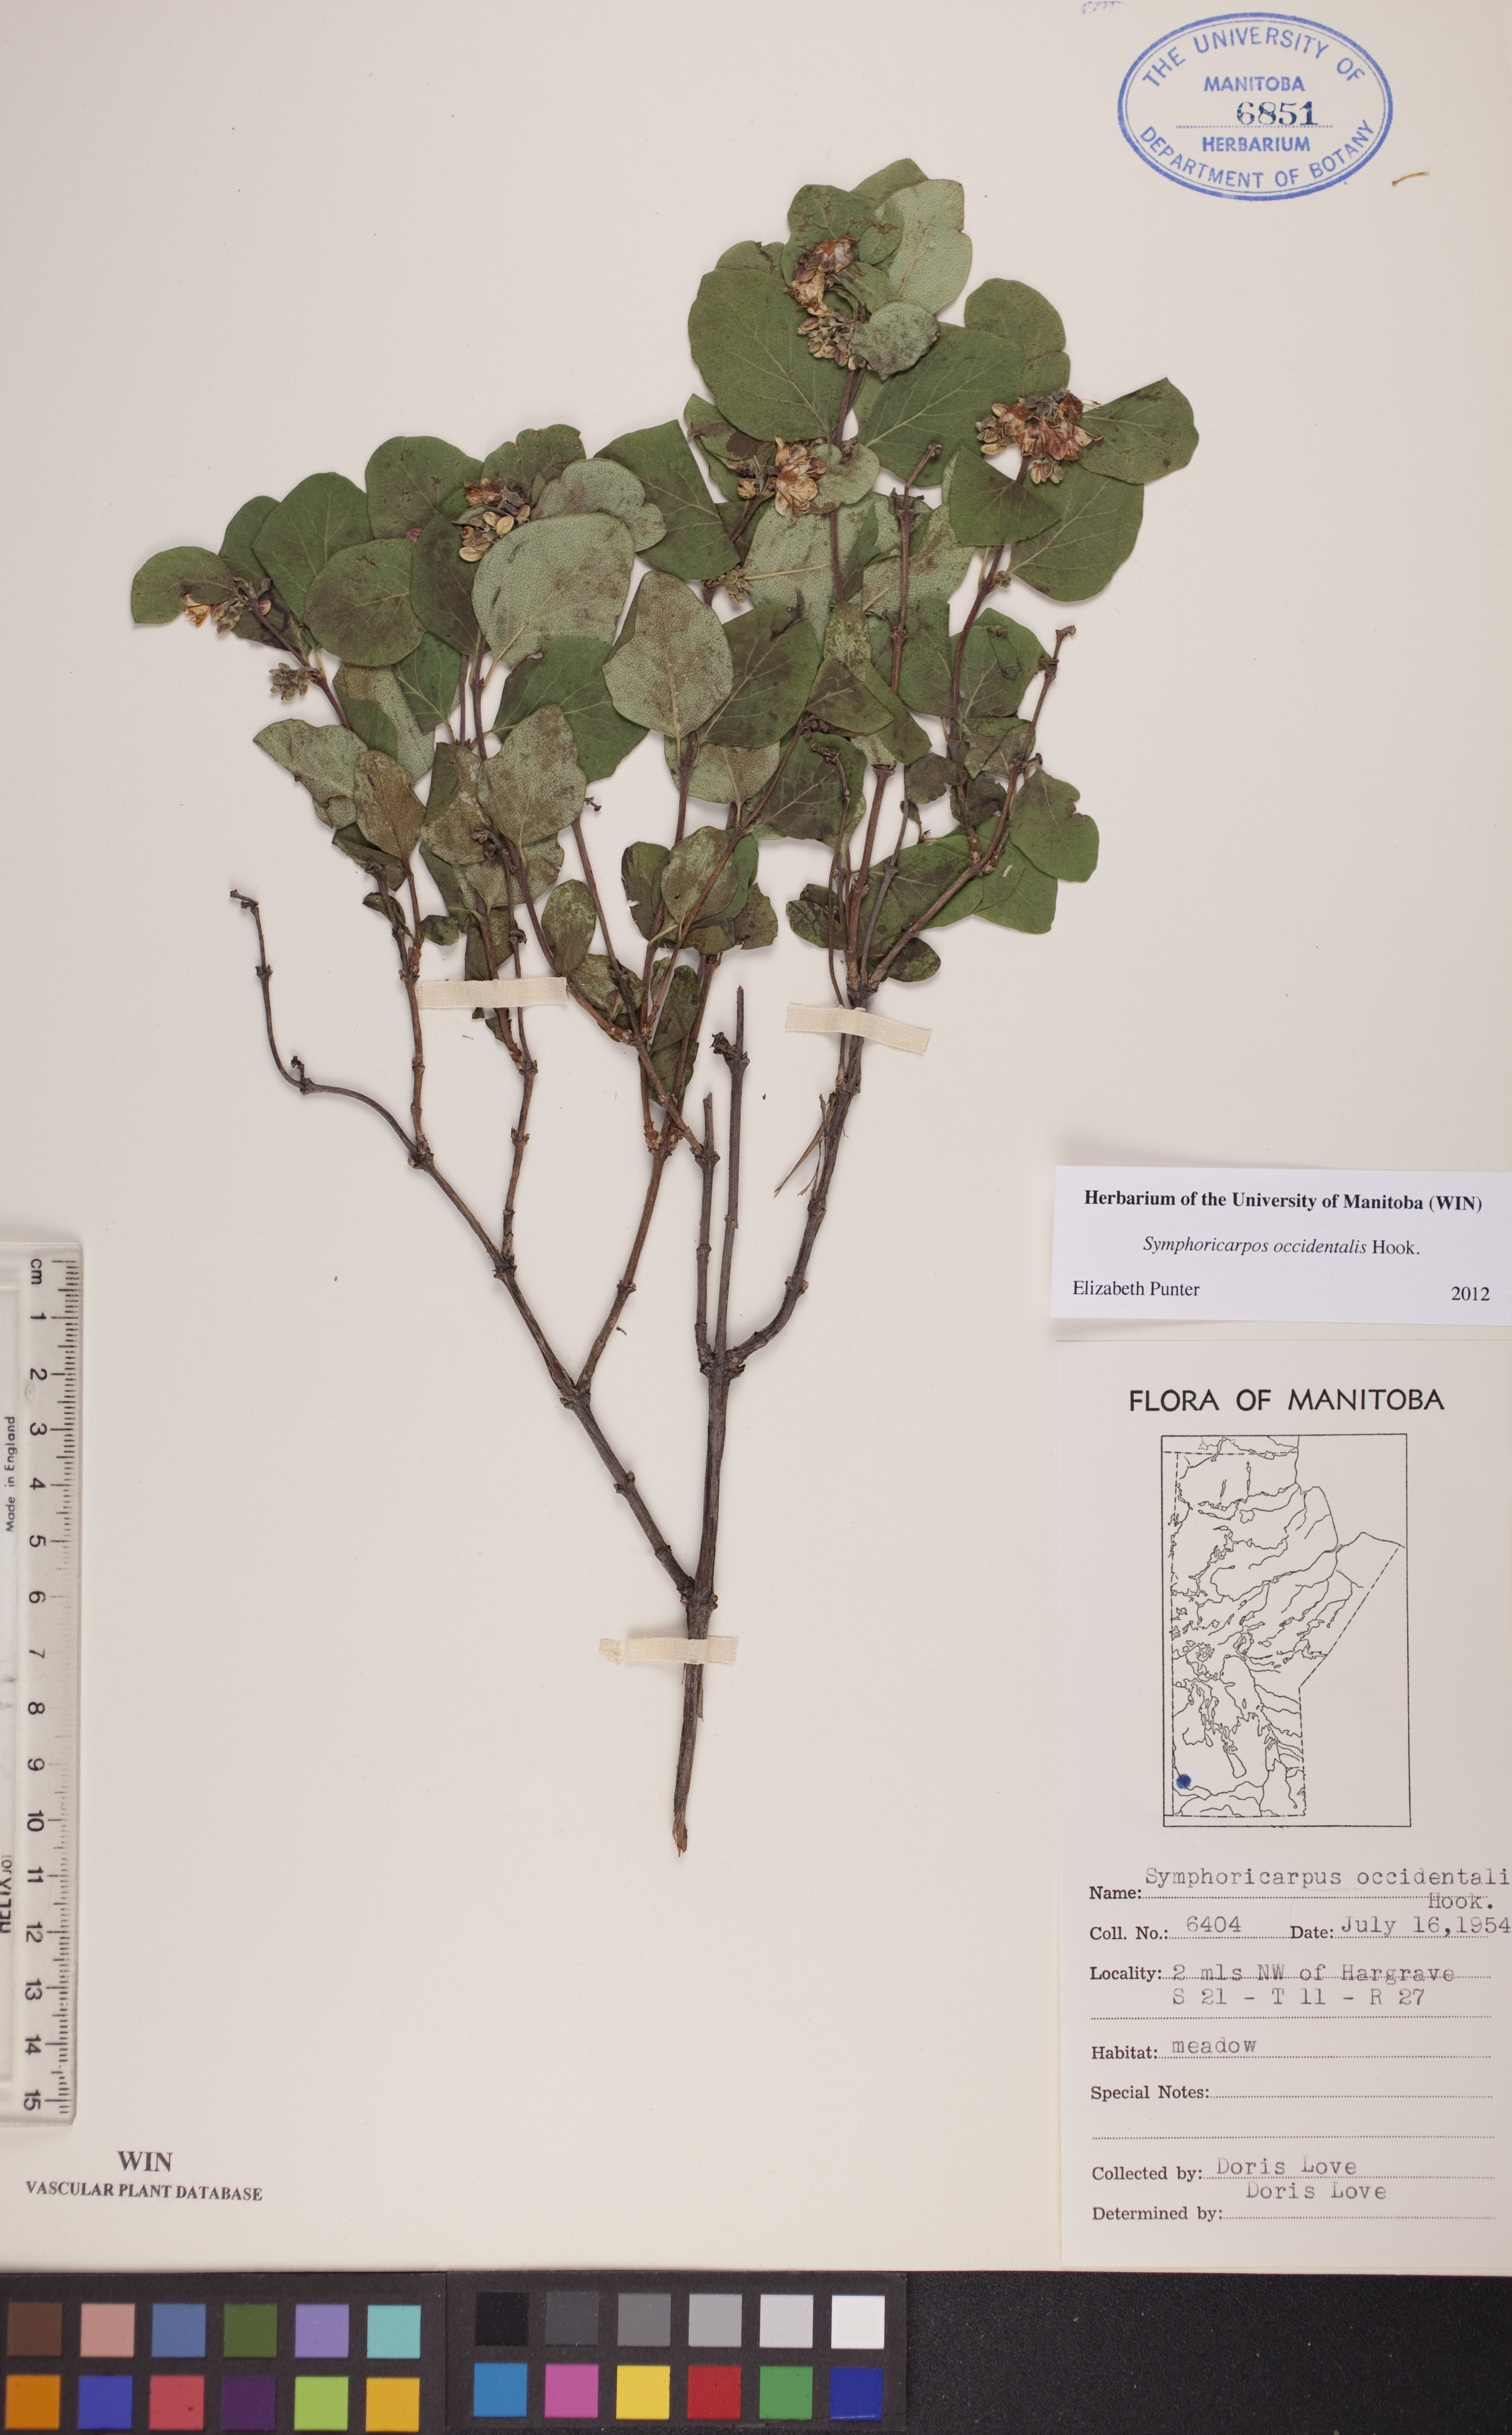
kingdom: Plantae
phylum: Tracheophyta
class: Magnoliopsida
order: Dipsacales
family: Caprifoliaceae
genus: Symphoricarpos
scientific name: Symphoricarpos occidentalis
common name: Wolfberry
